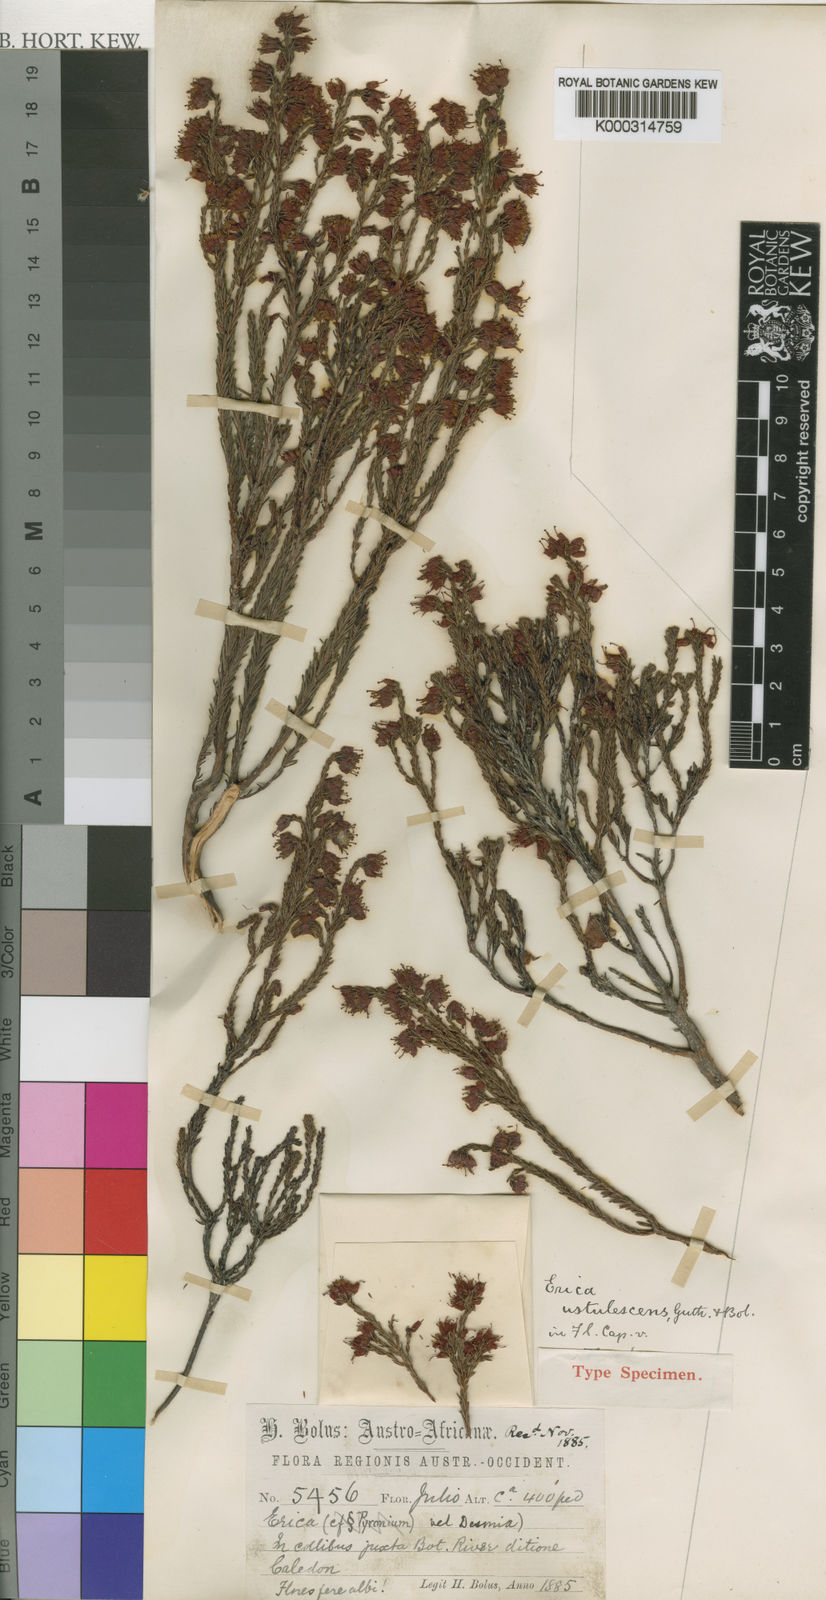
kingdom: Plantae
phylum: Tracheophyta
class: Magnoliopsida
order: Ericales
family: Ericaceae
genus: Erica
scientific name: Erica ustulescens
